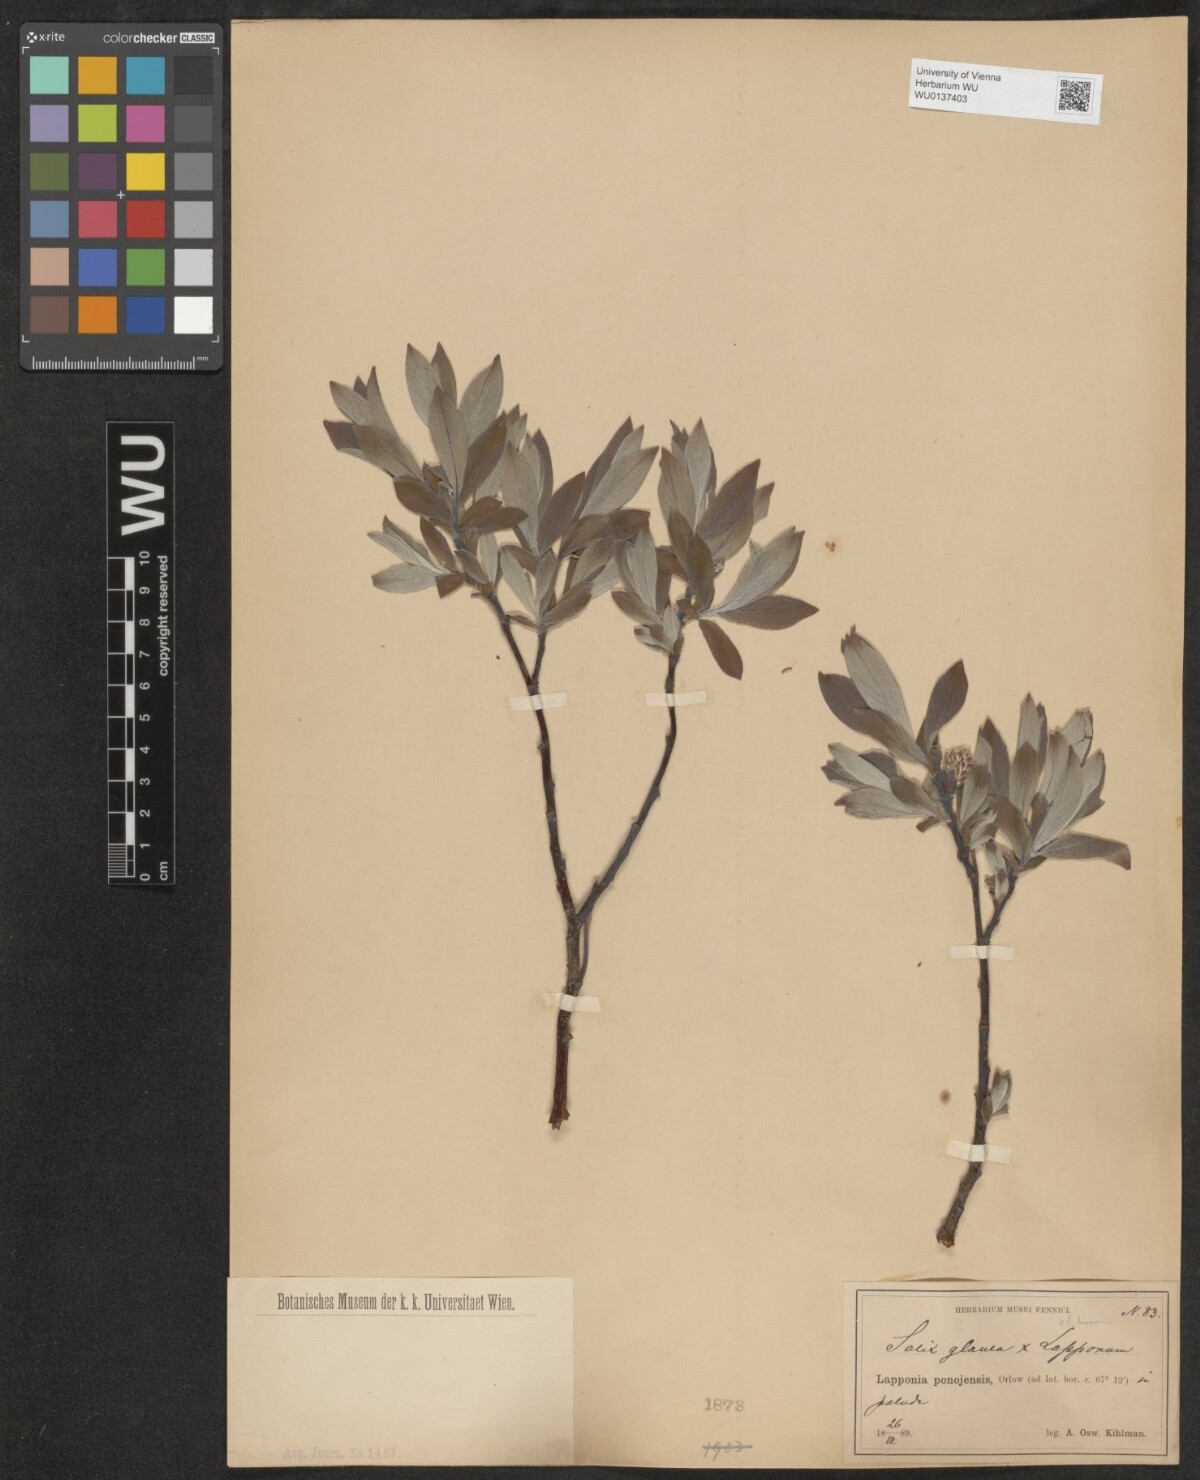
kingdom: Plantae
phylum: Tracheophyta
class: Magnoliopsida
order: Malpighiales
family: Salicaceae
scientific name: Salicaceae
